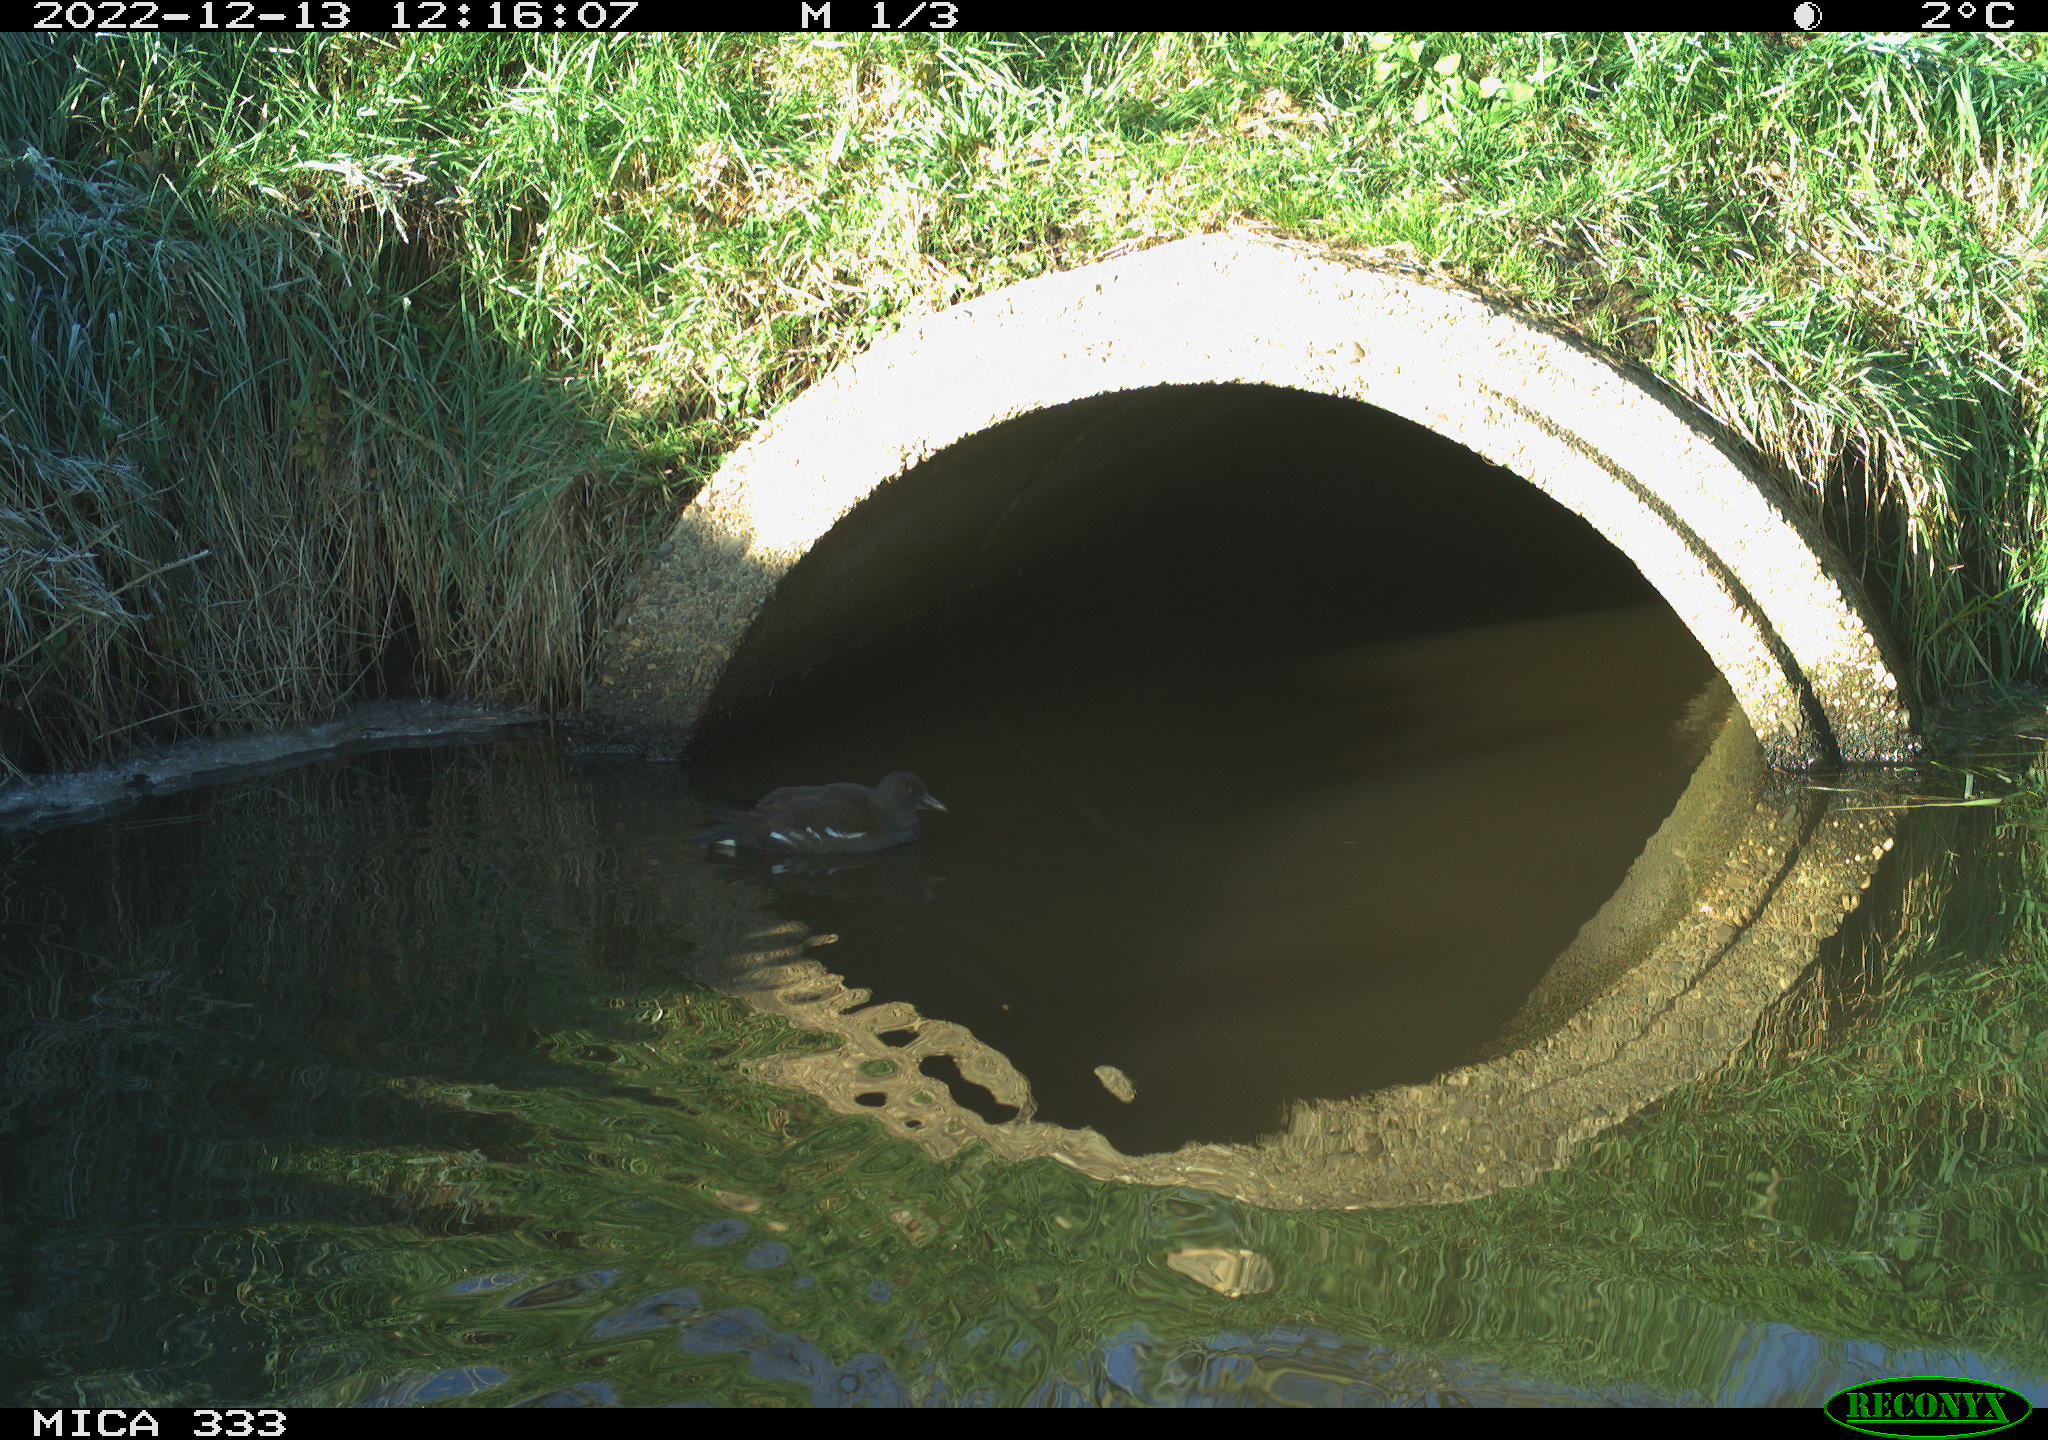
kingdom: Animalia
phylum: Chordata
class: Aves
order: Gruiformes
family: Rallidae
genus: Gallinula
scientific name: Gallinula chloropus
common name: Common moorhen
